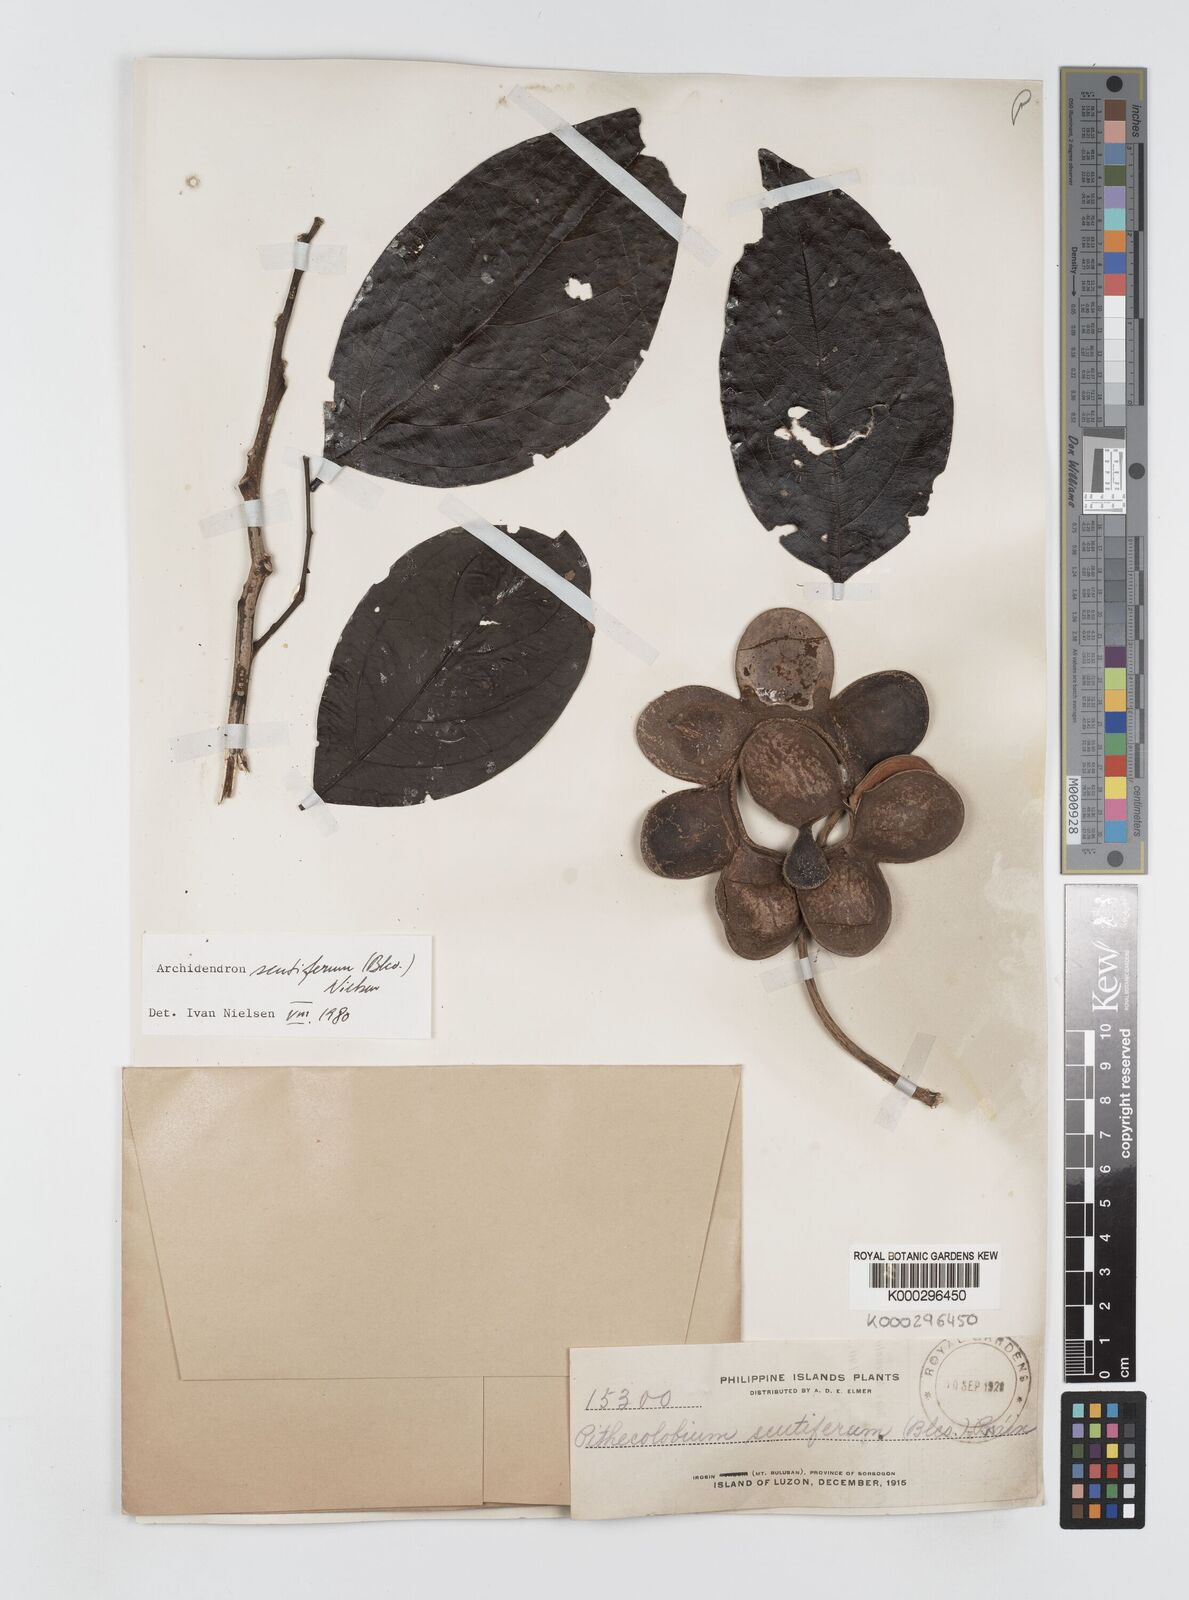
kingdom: Plantae
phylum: Tracheophyta
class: Magnoliopsida
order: Fabales
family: Fabaceae
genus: Archidendron
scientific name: Archidendron scutiferum
